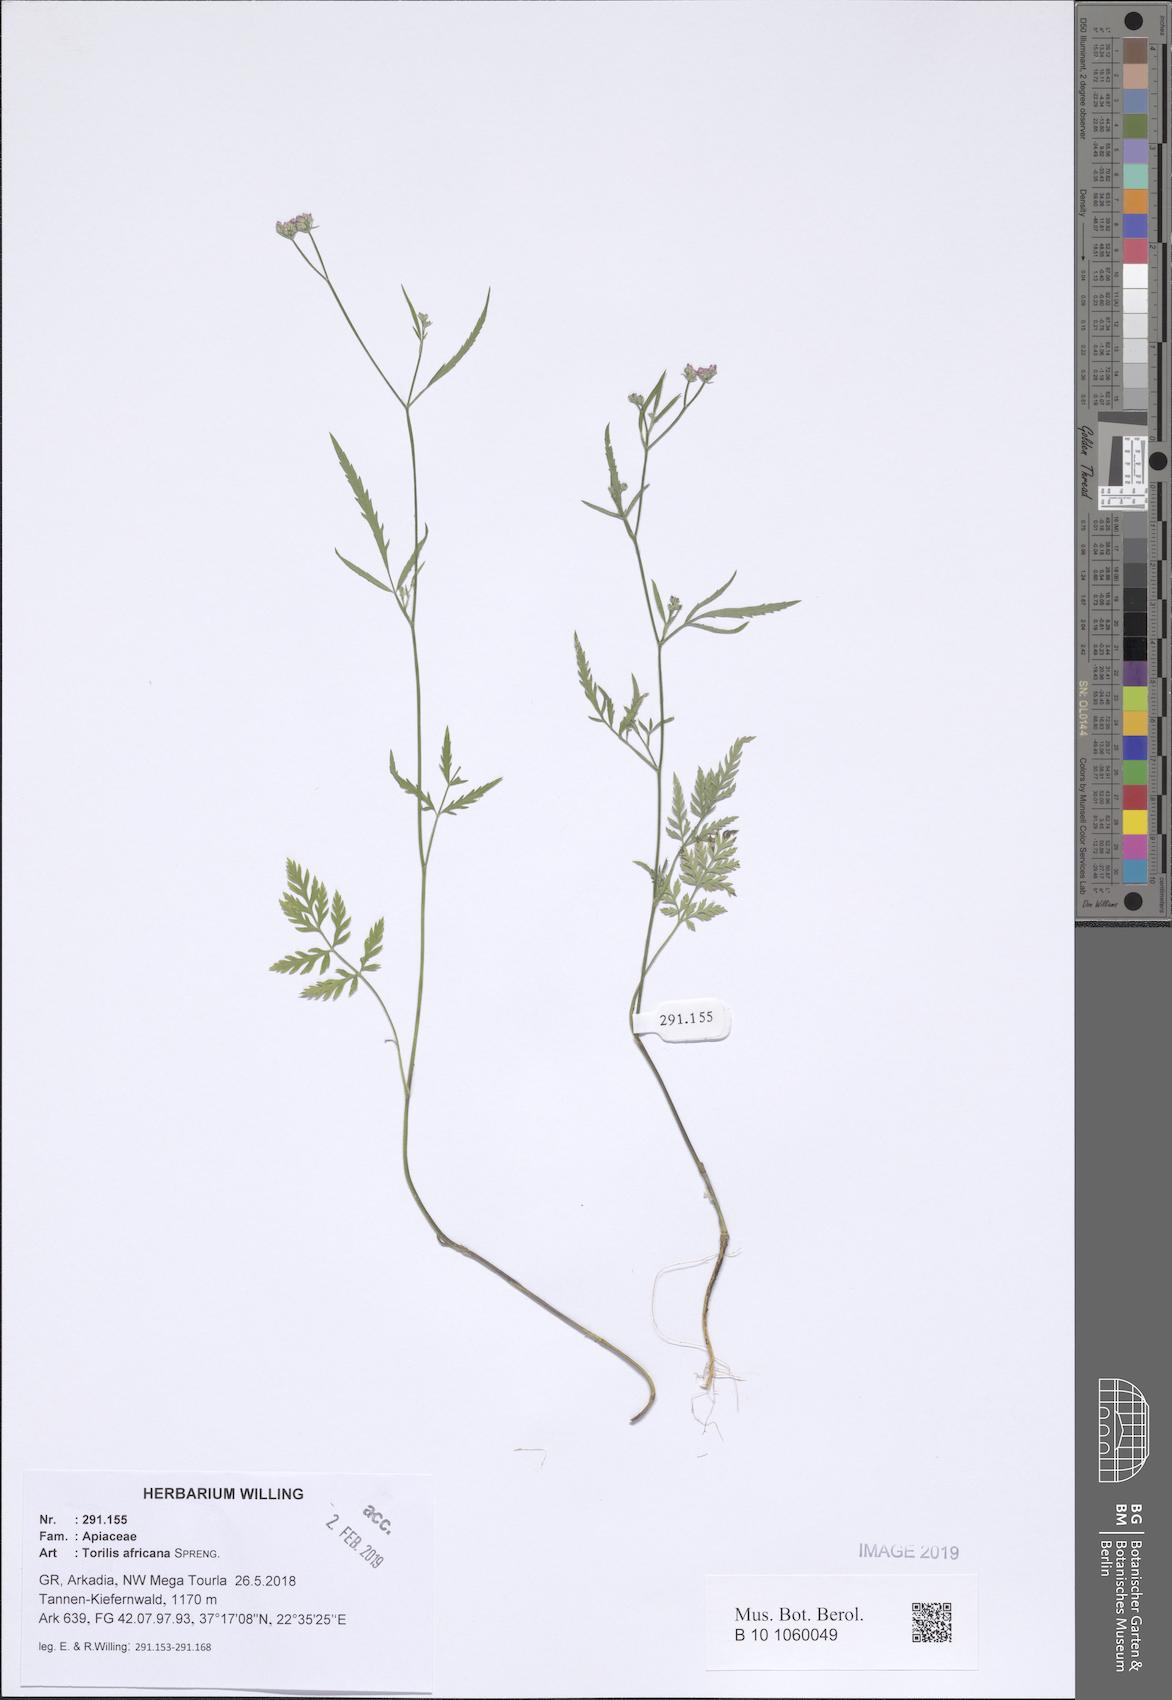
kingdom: Plantae
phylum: Tracheophyta
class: Magnoliopsida
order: Apiales
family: Apiaceae
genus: Torilis
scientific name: Torilis africana
